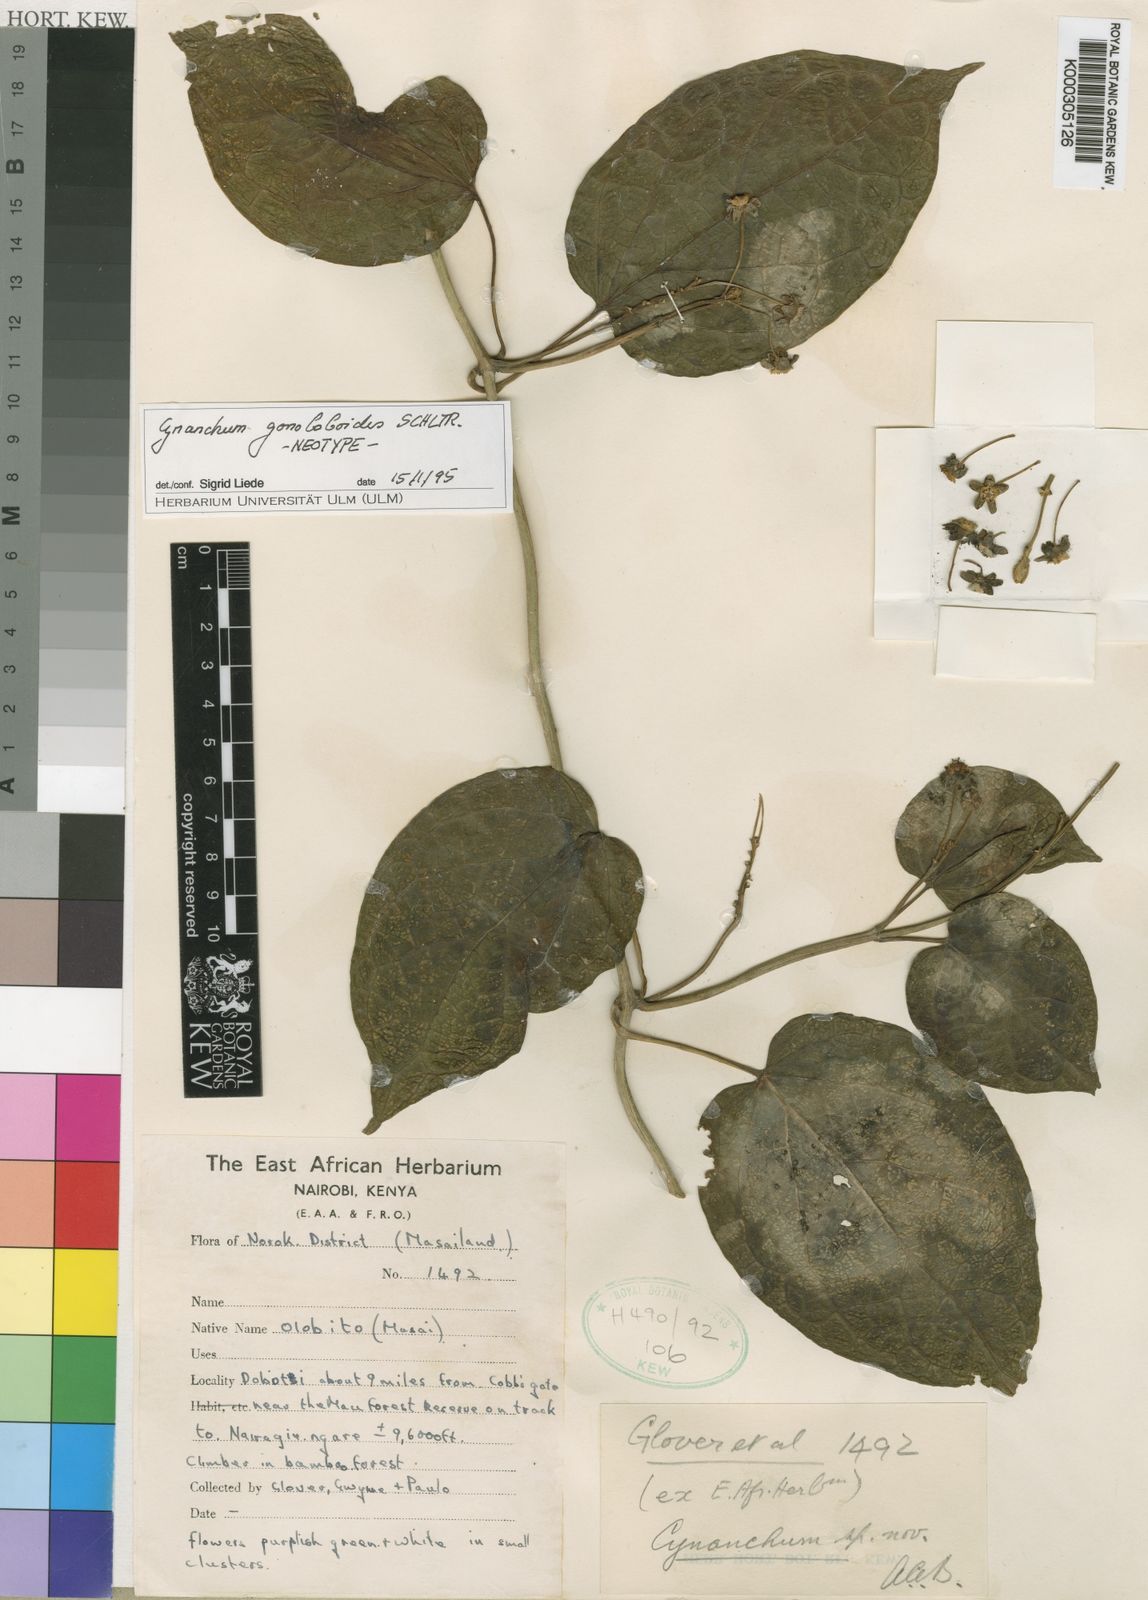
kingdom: Plantae
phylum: Tracheophyta
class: Magnoliopsida
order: Gentianales
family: Apocynaceae
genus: Cynanchum
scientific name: Cynanchum gonoloboides
